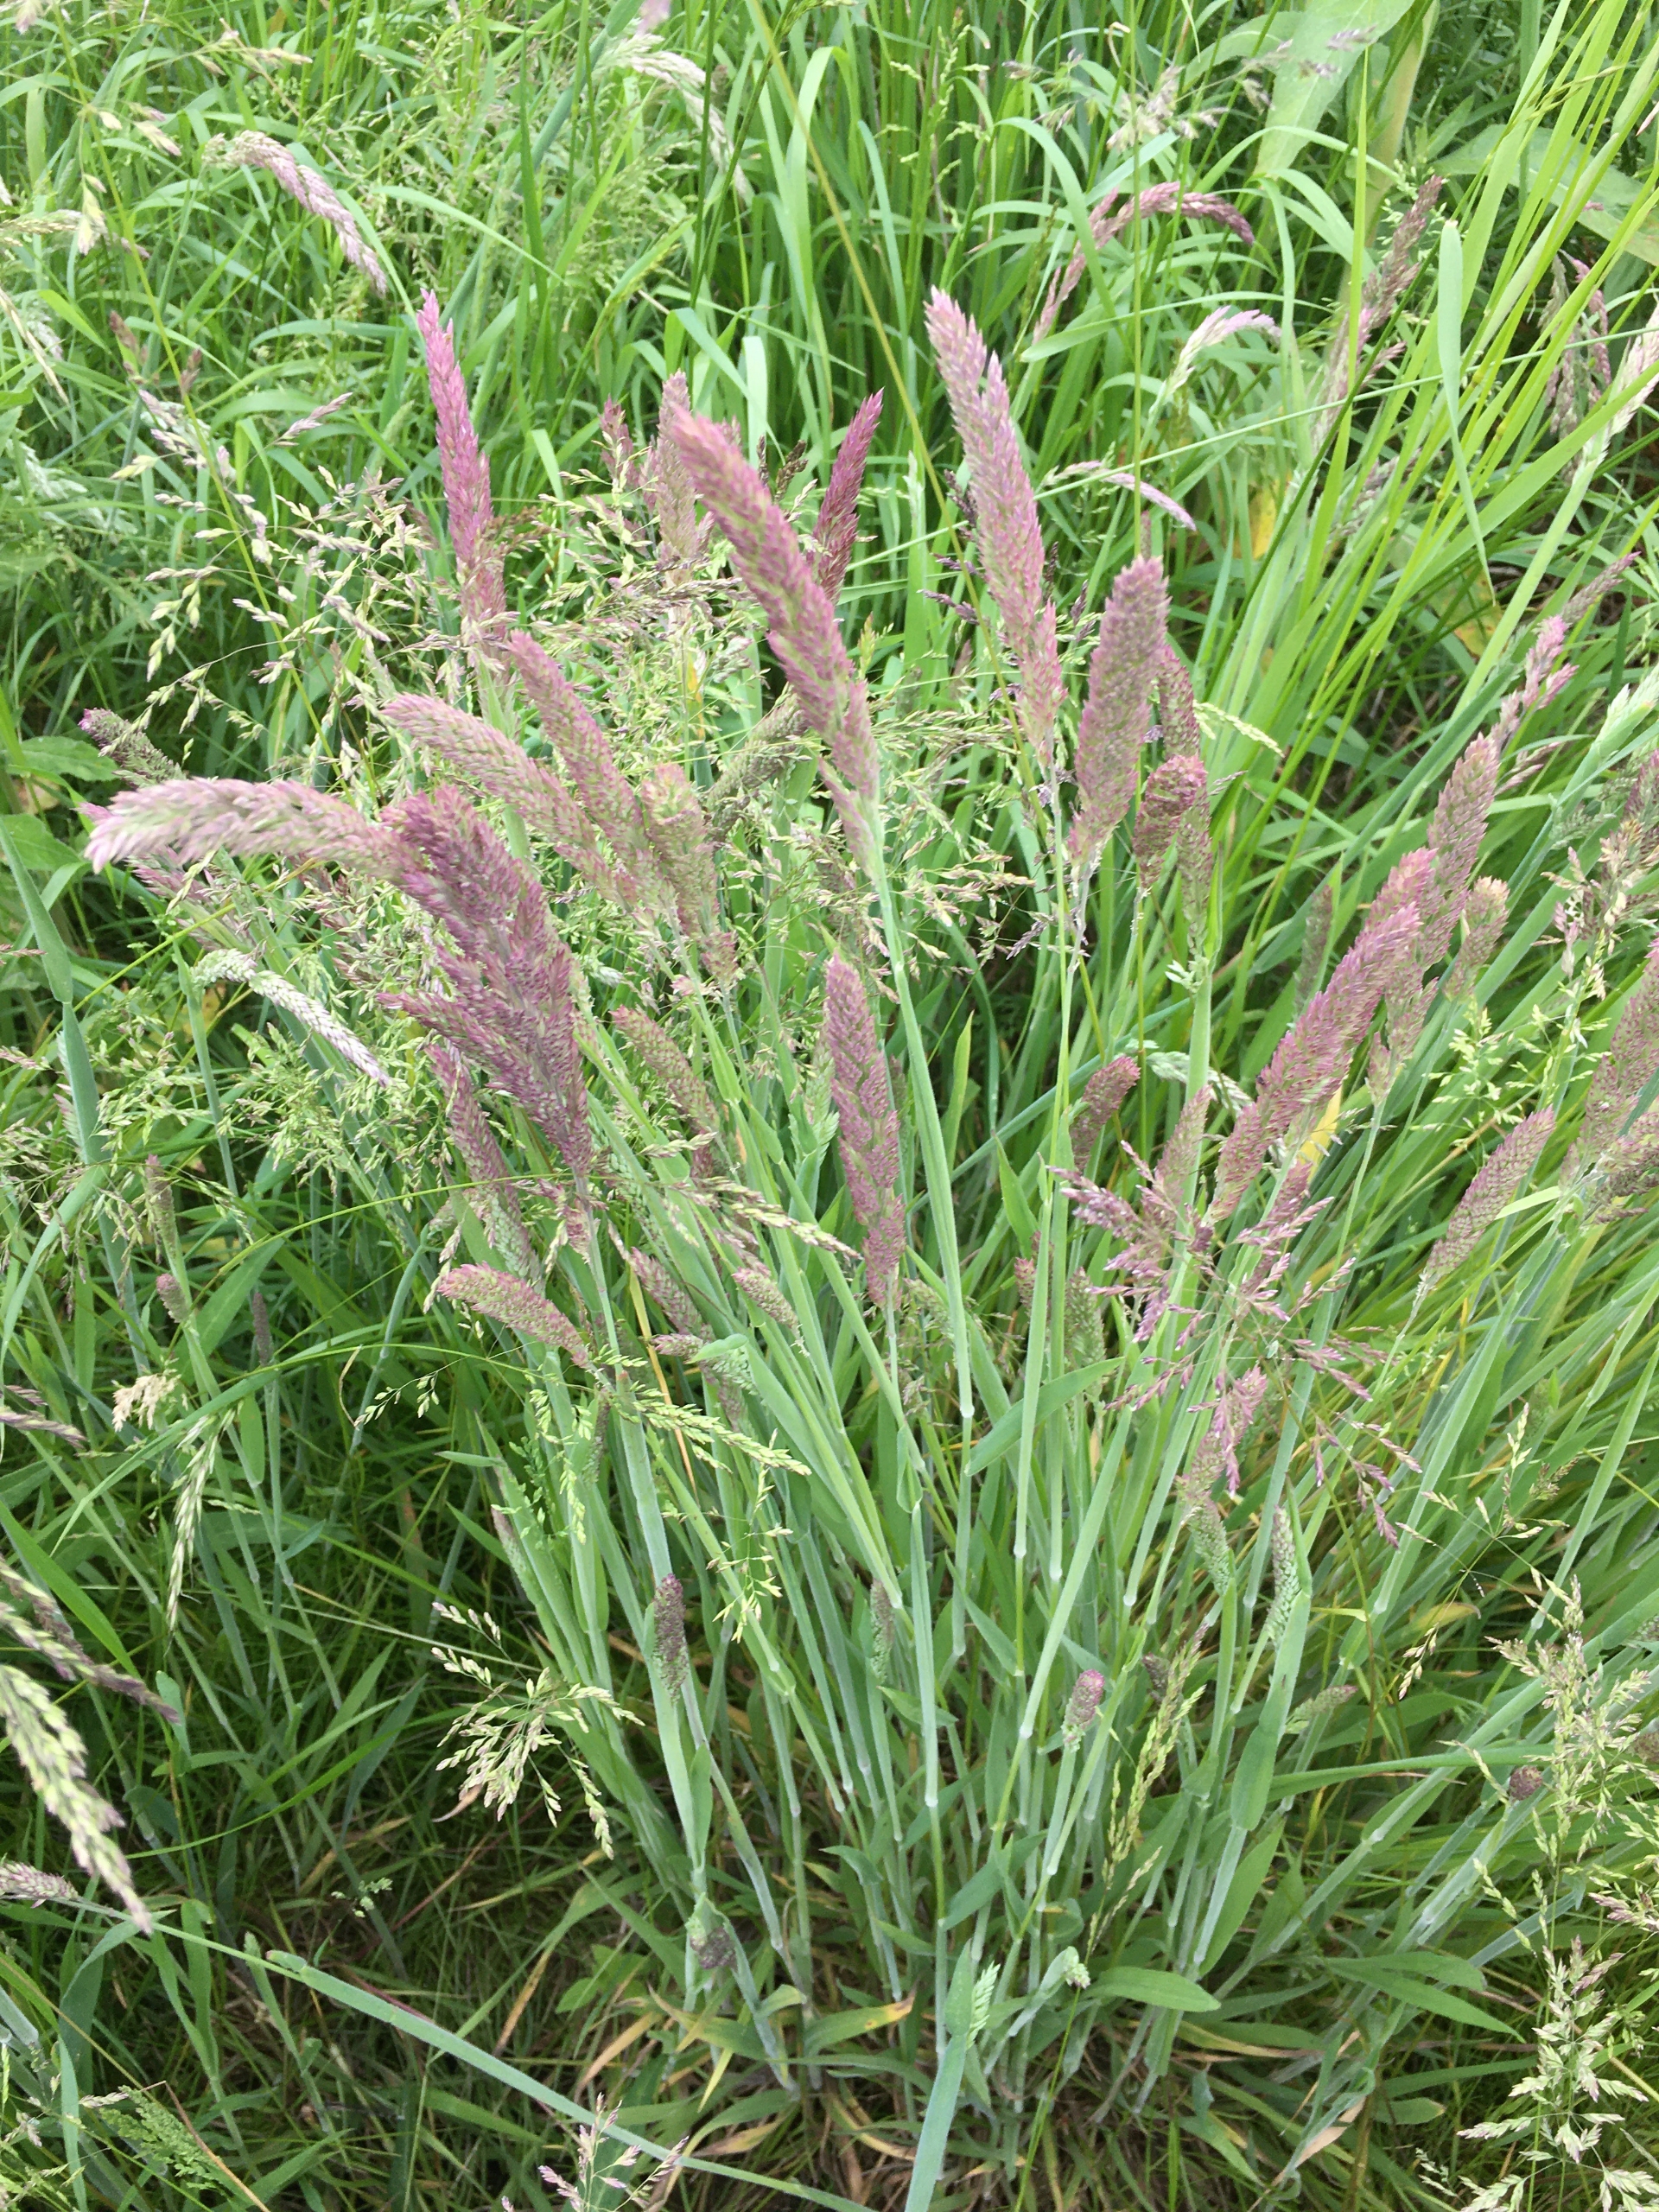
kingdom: Plantae
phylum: Tracheophyta
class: Liliopsida
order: Poales
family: Poaceae
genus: Holcus
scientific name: Holcus lanatus
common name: Fløjlsgræs
